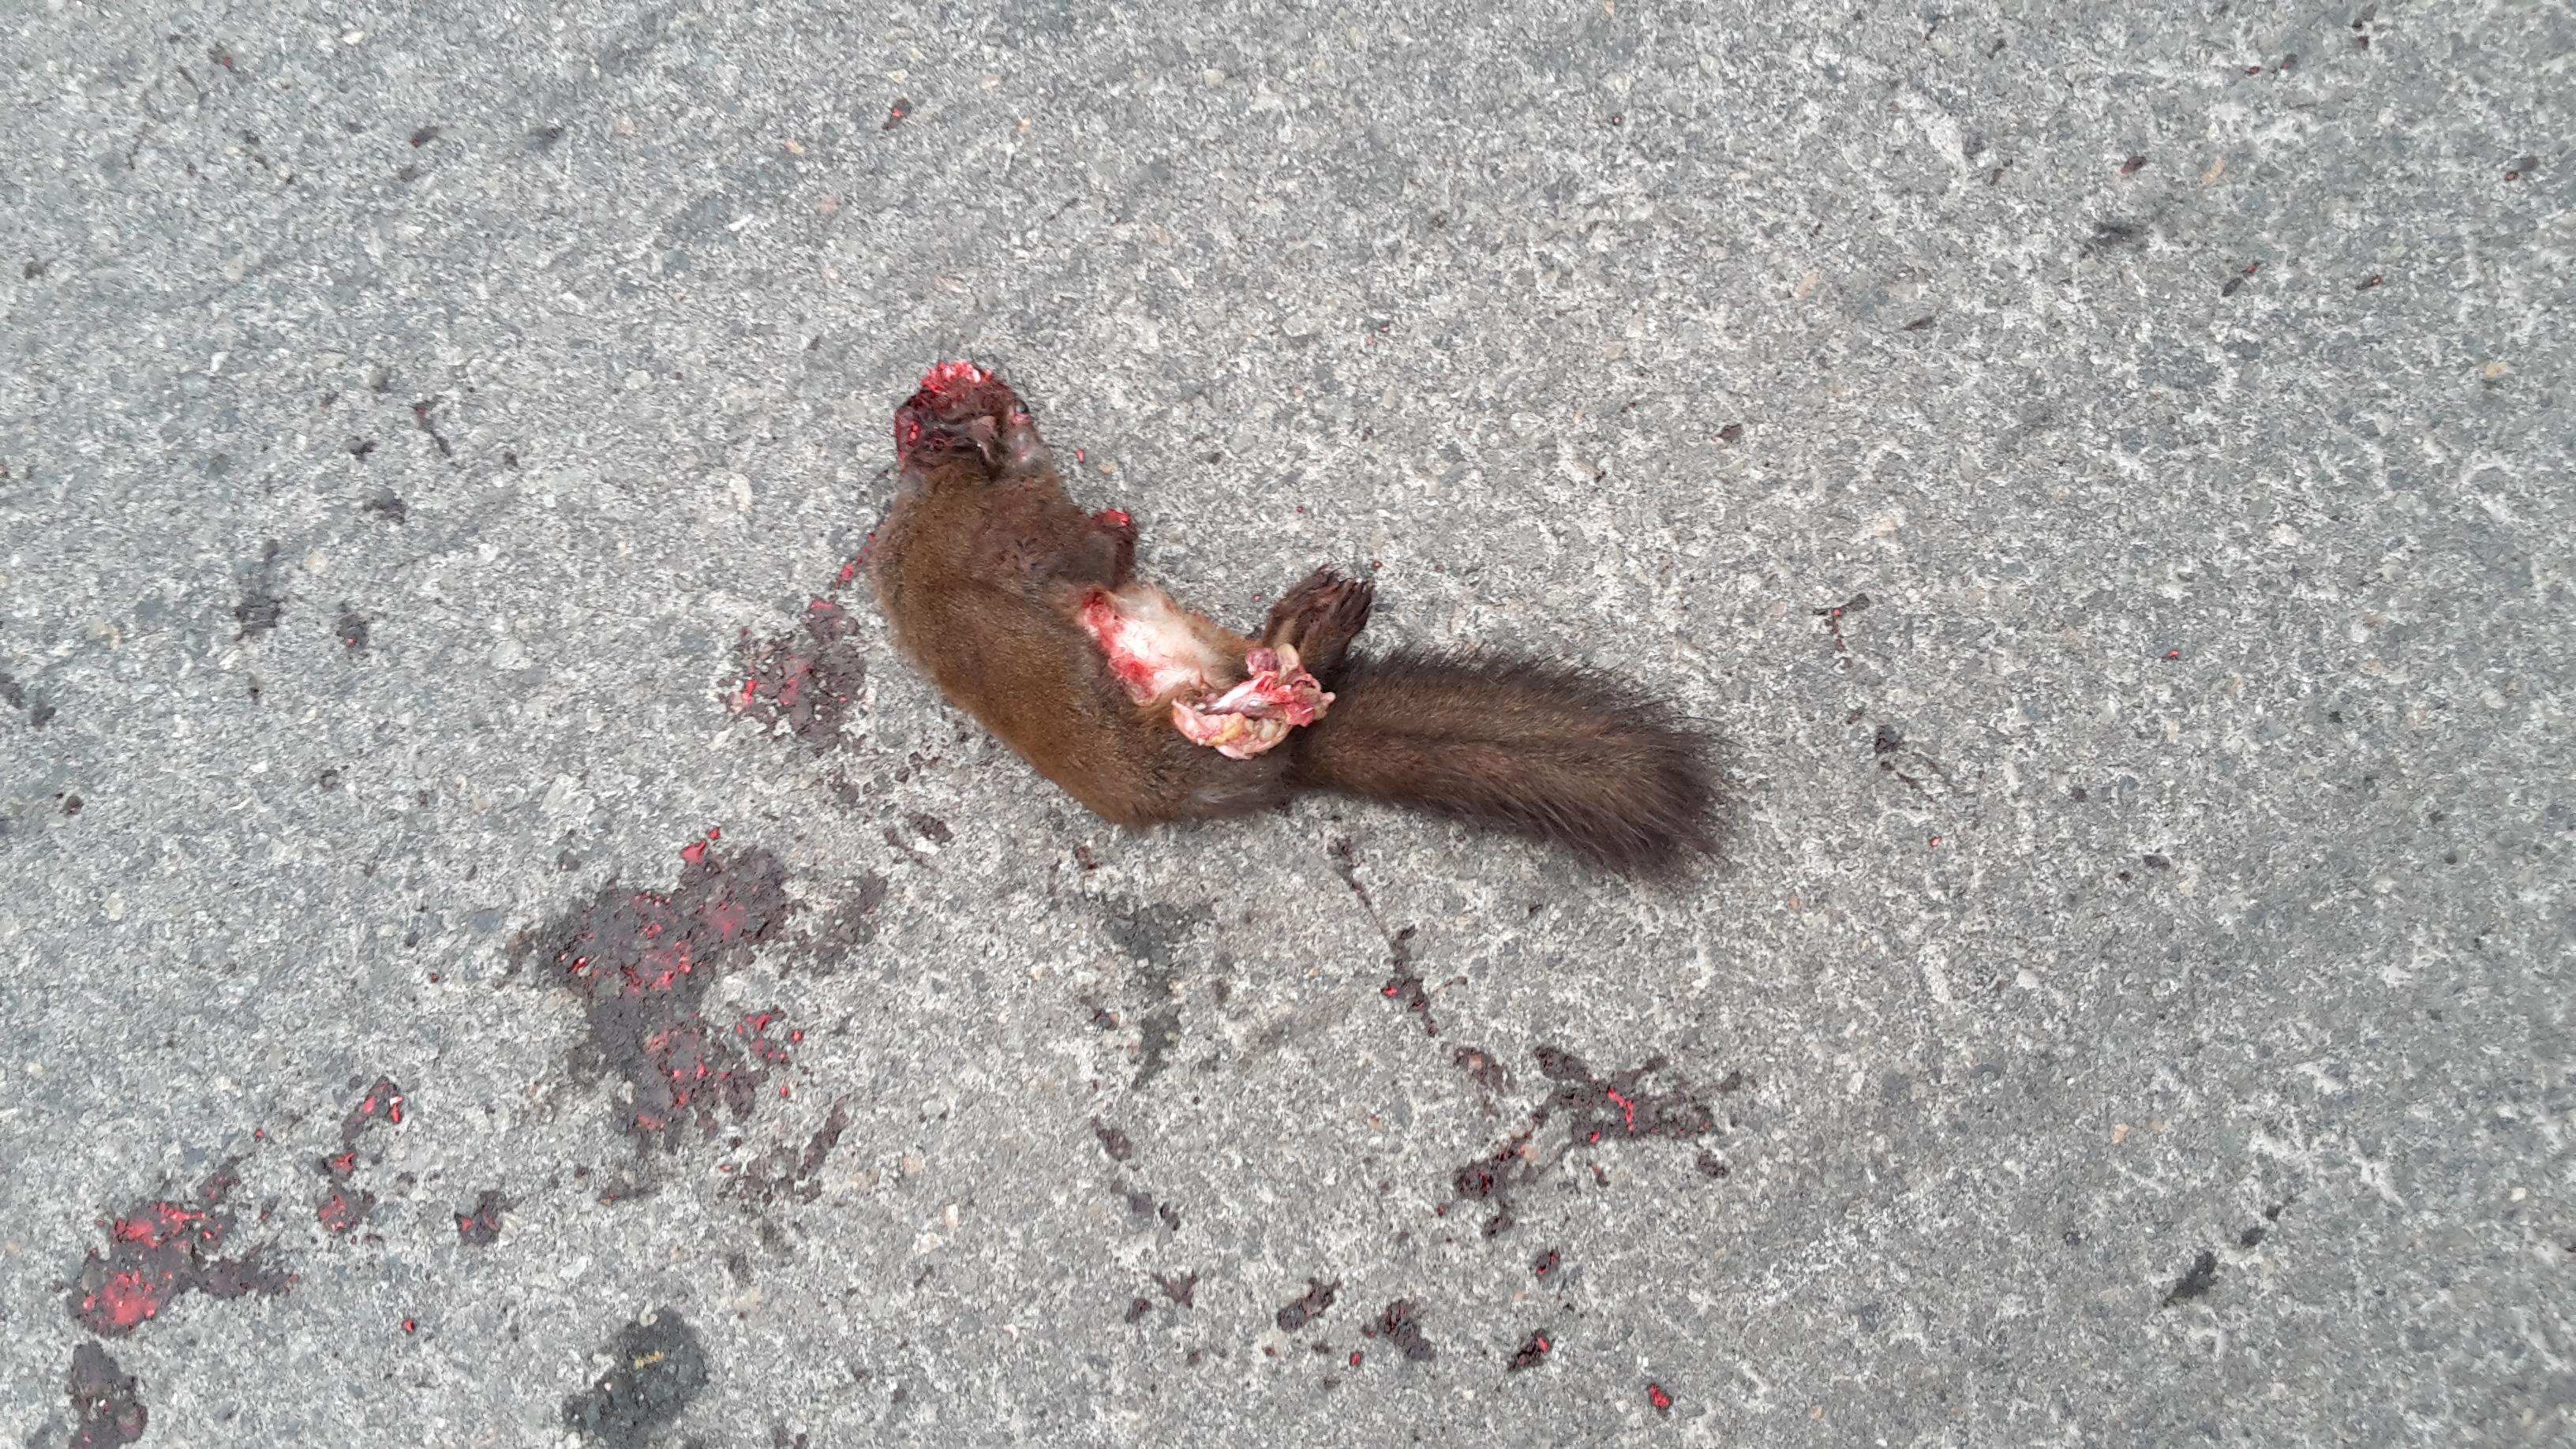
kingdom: Animalia
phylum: Chordata
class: Mammalia
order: Rodentia
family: Sciuridae
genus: Sciurus
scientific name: Sciurus vulgaris
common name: Eurasian red squirrel
